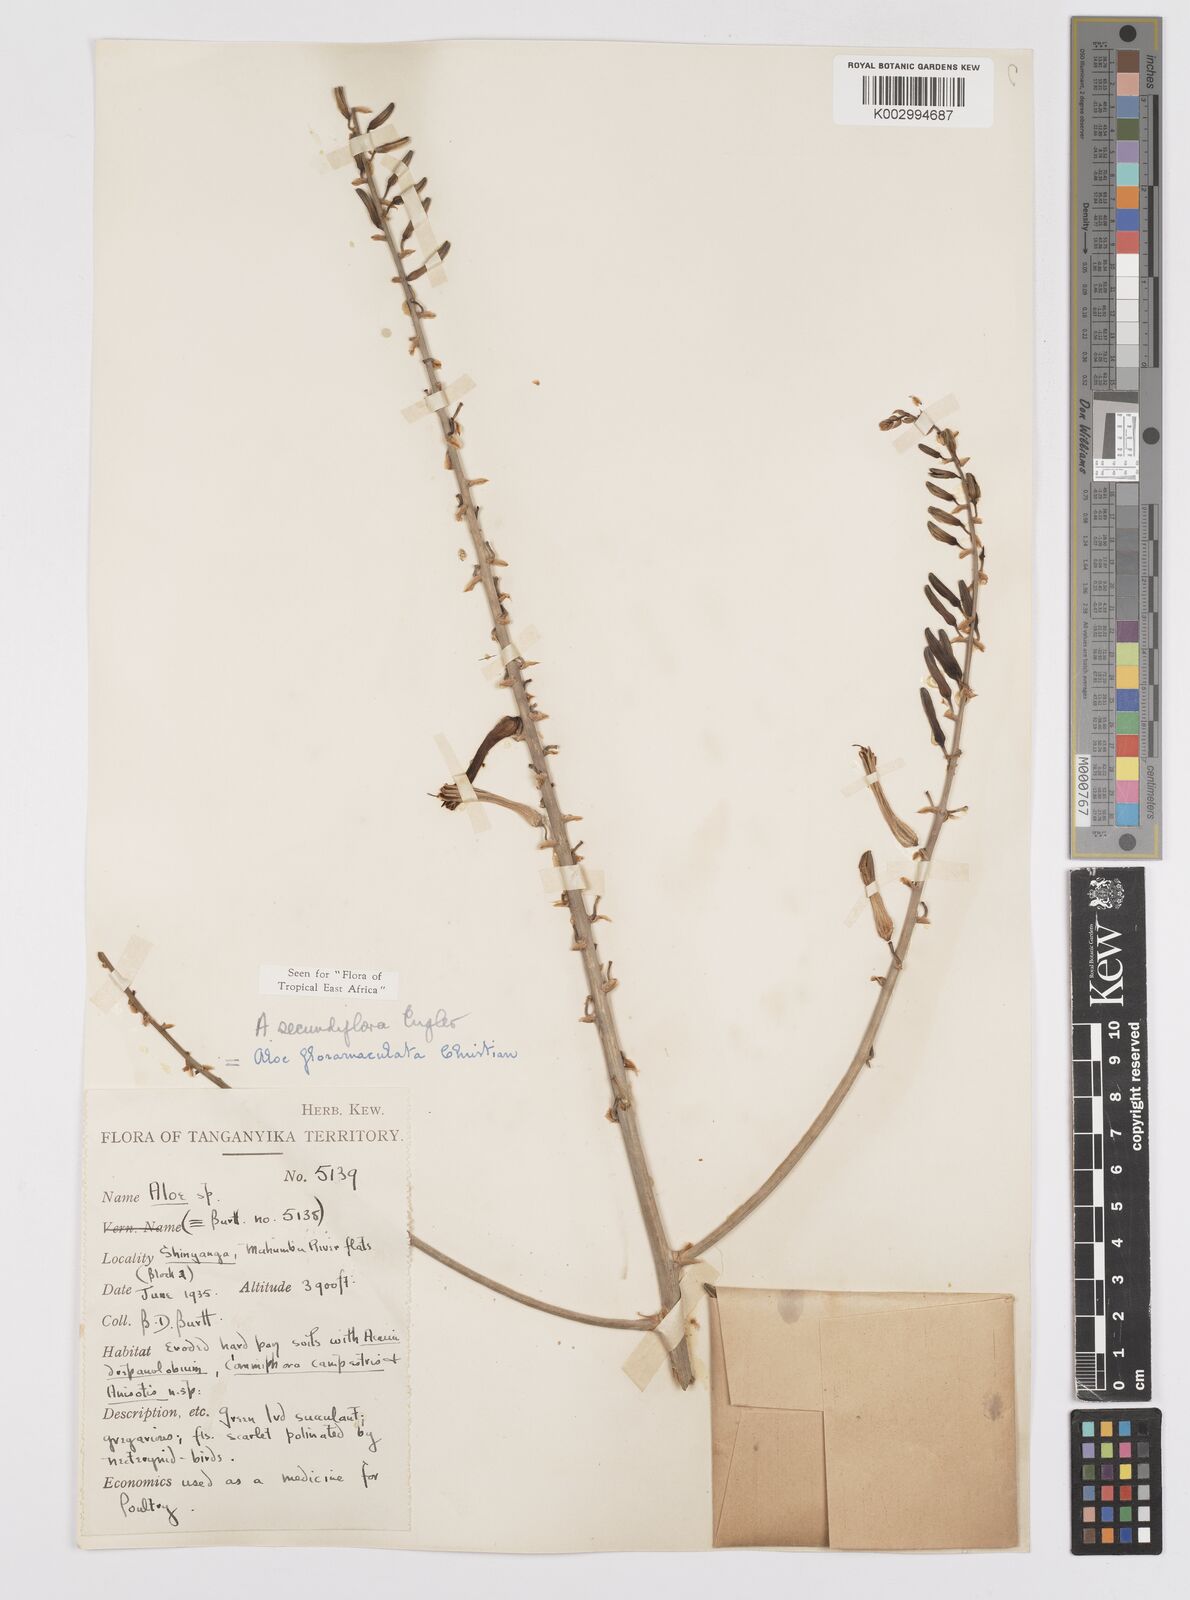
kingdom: Plantae
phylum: Tracheophyta
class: Liliopsida
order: Asparagales
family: Asphodelaceae
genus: Aloe
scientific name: Aloe secundiflora
